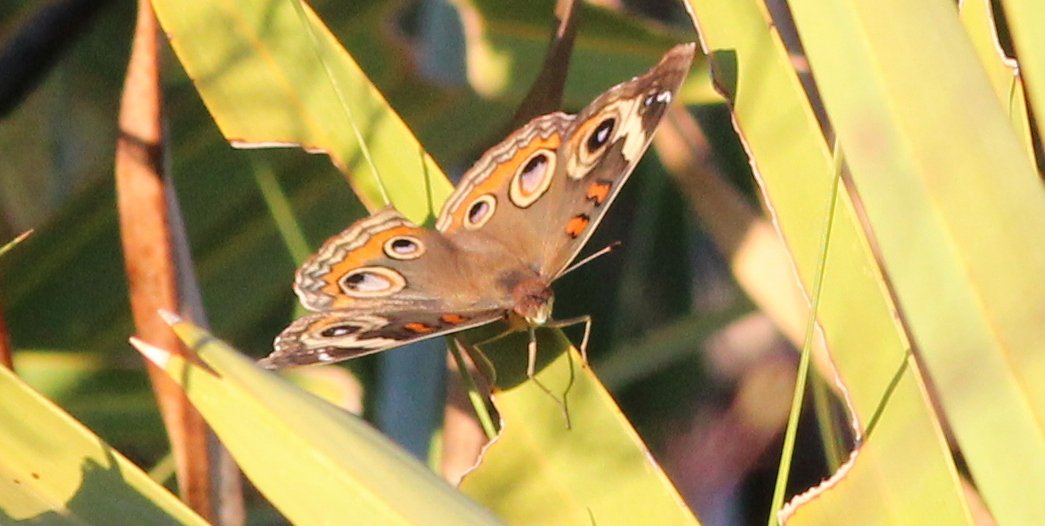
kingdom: Animalia
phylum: Arthropoda
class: Insecta
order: Lepidoptera
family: Nymphalidae
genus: Junonia
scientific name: Junonia coenia
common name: Common Buckeye
